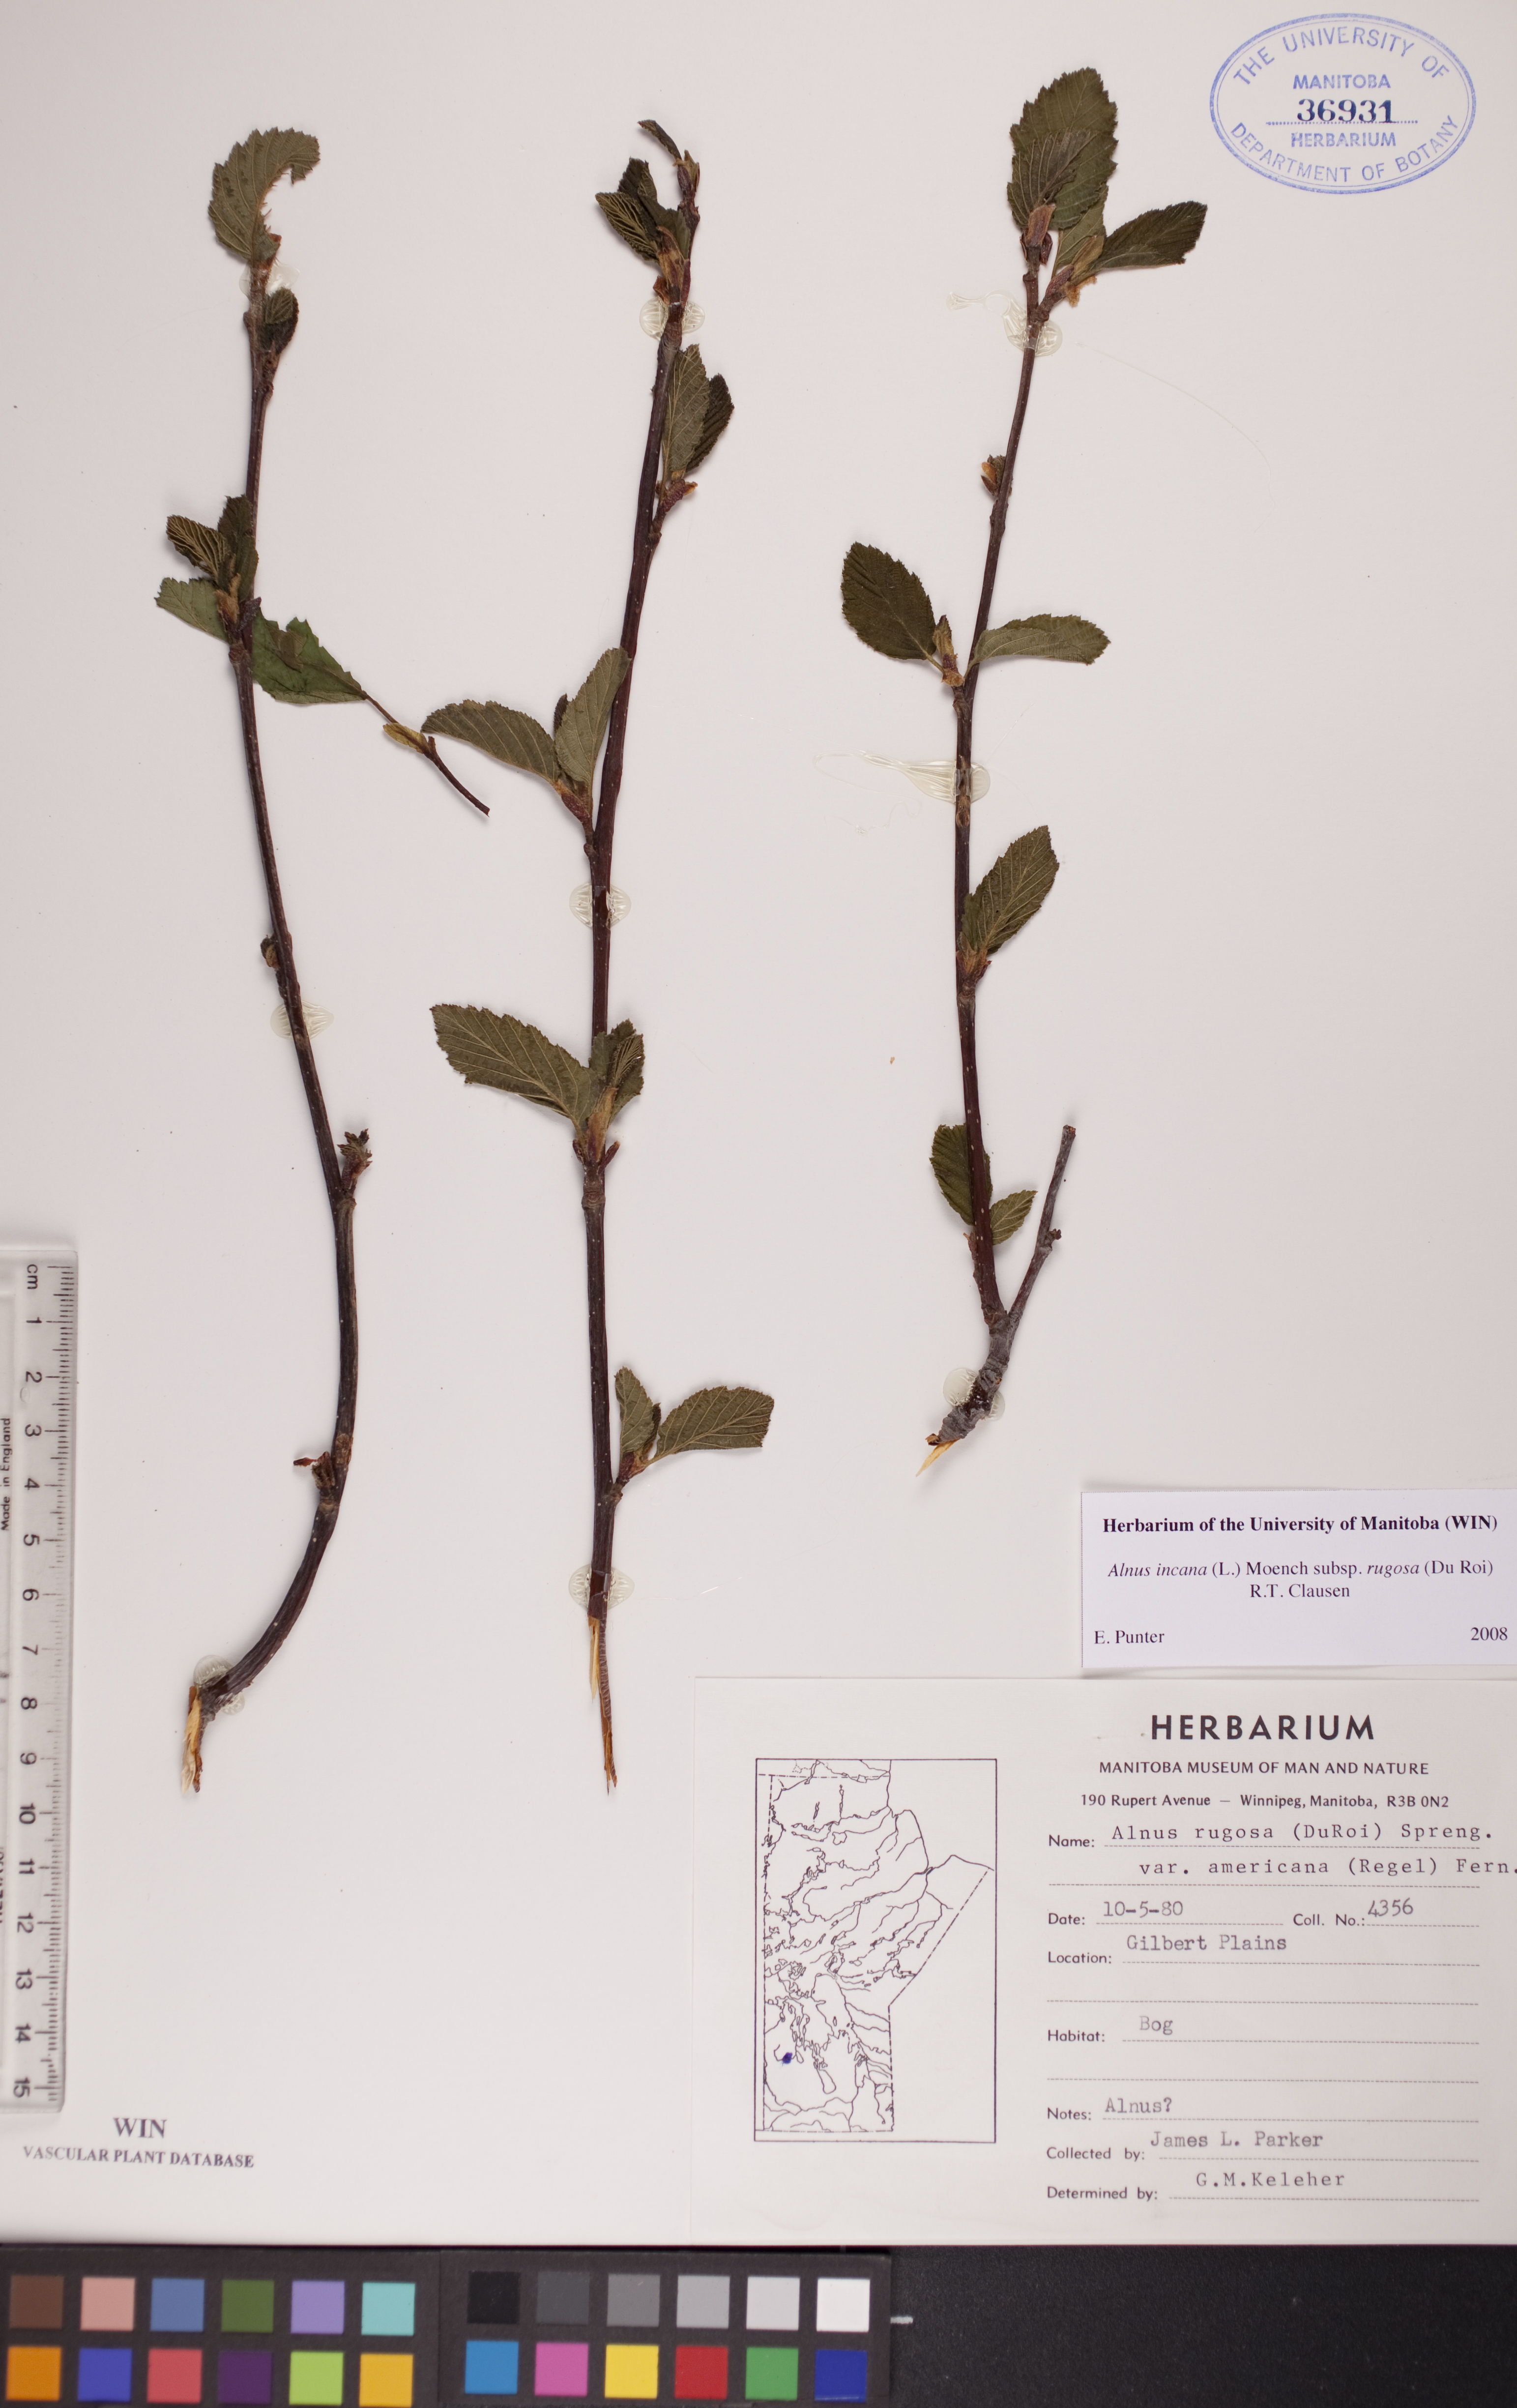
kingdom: Plantae
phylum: Tracheophyta
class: Magnoliopsida
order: Fagales
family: Betulaceae
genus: Alnus
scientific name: Alnus incana
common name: Grey alder
